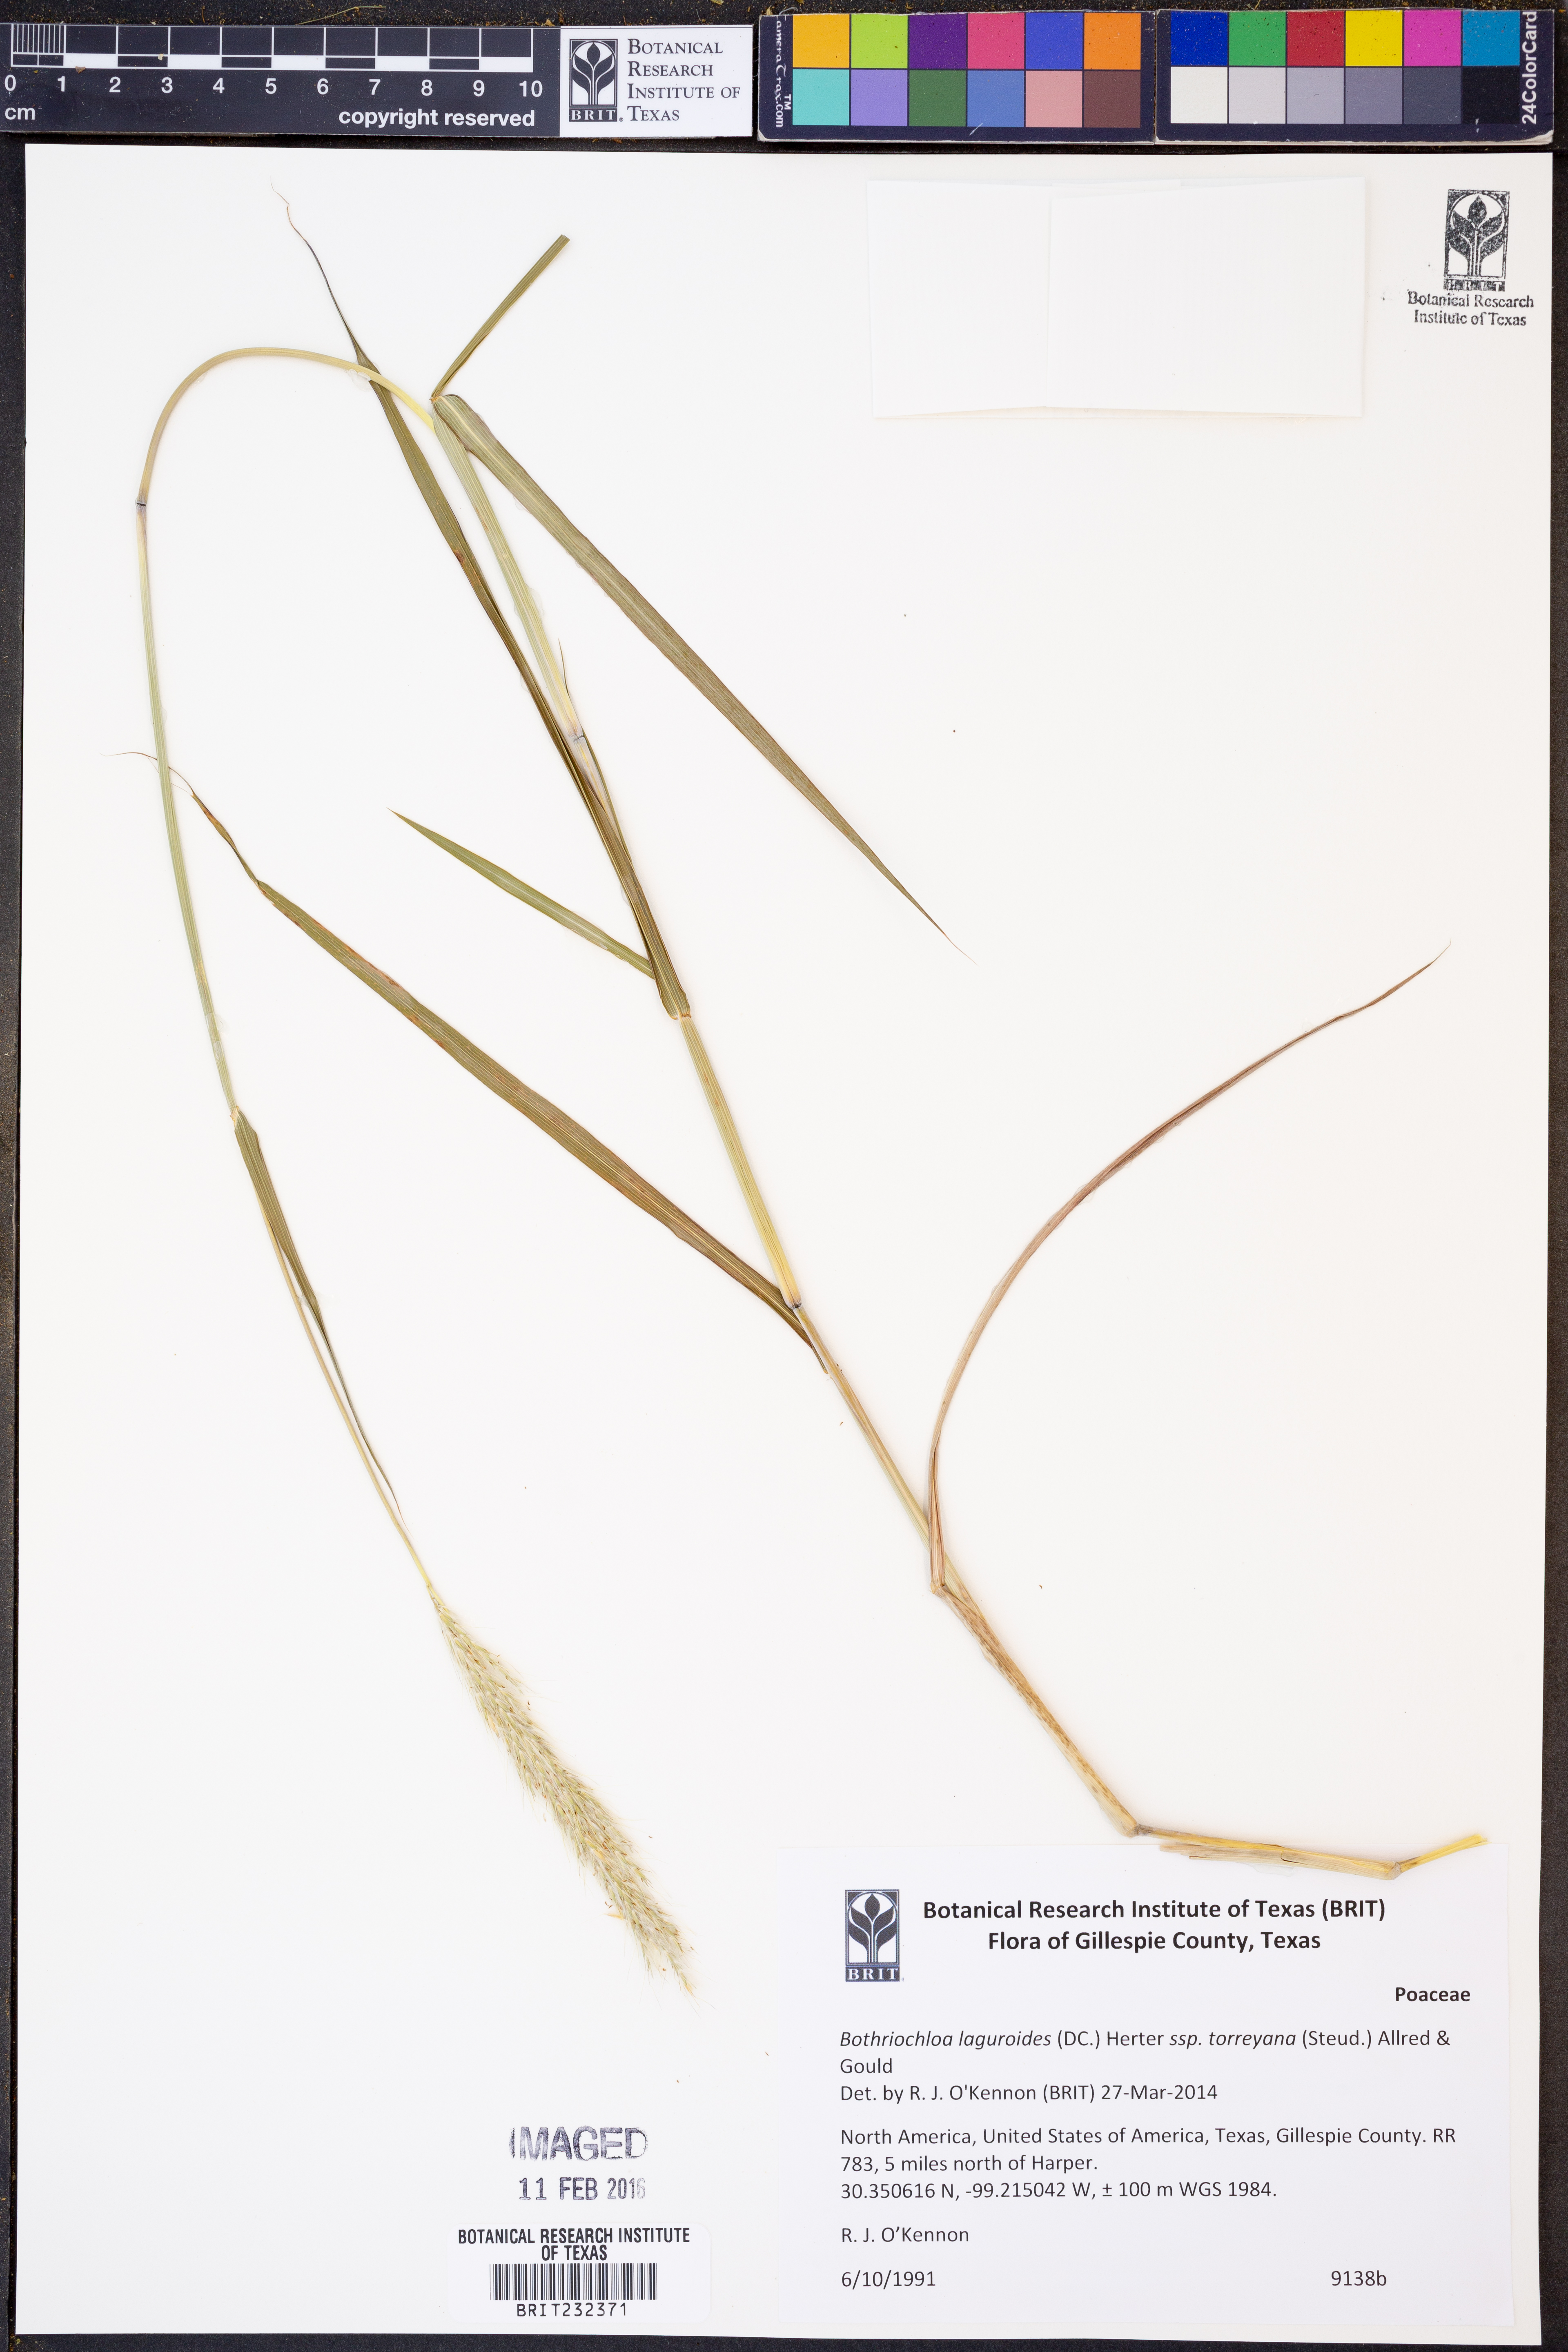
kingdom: Plantae
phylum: Tracheophyta
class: Liliopsida
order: Poales
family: Poaceae
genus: Bothriochloa
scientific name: Bothriochloa torreyana
